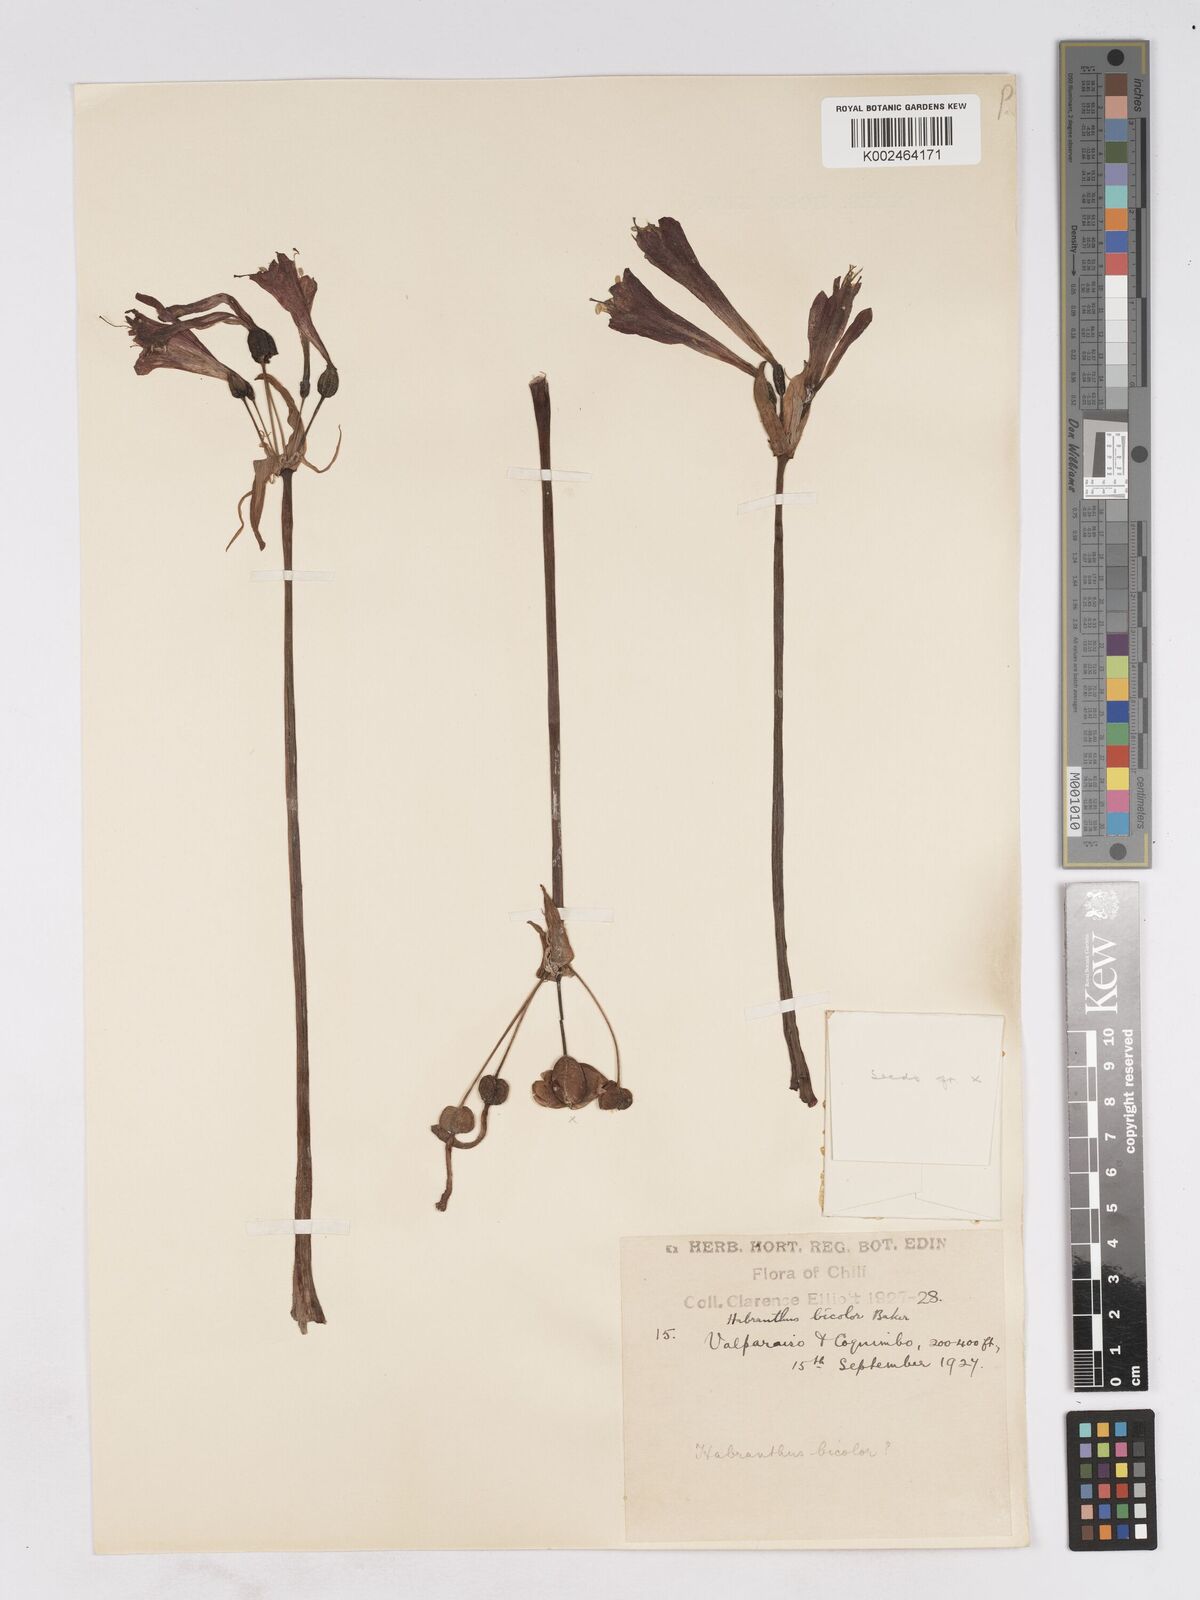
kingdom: Plantae
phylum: Tracheophyta
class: Liliopsida
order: Asparagales
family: Amaryllidaceae
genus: Eustephia
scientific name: Eustephia coccinea
